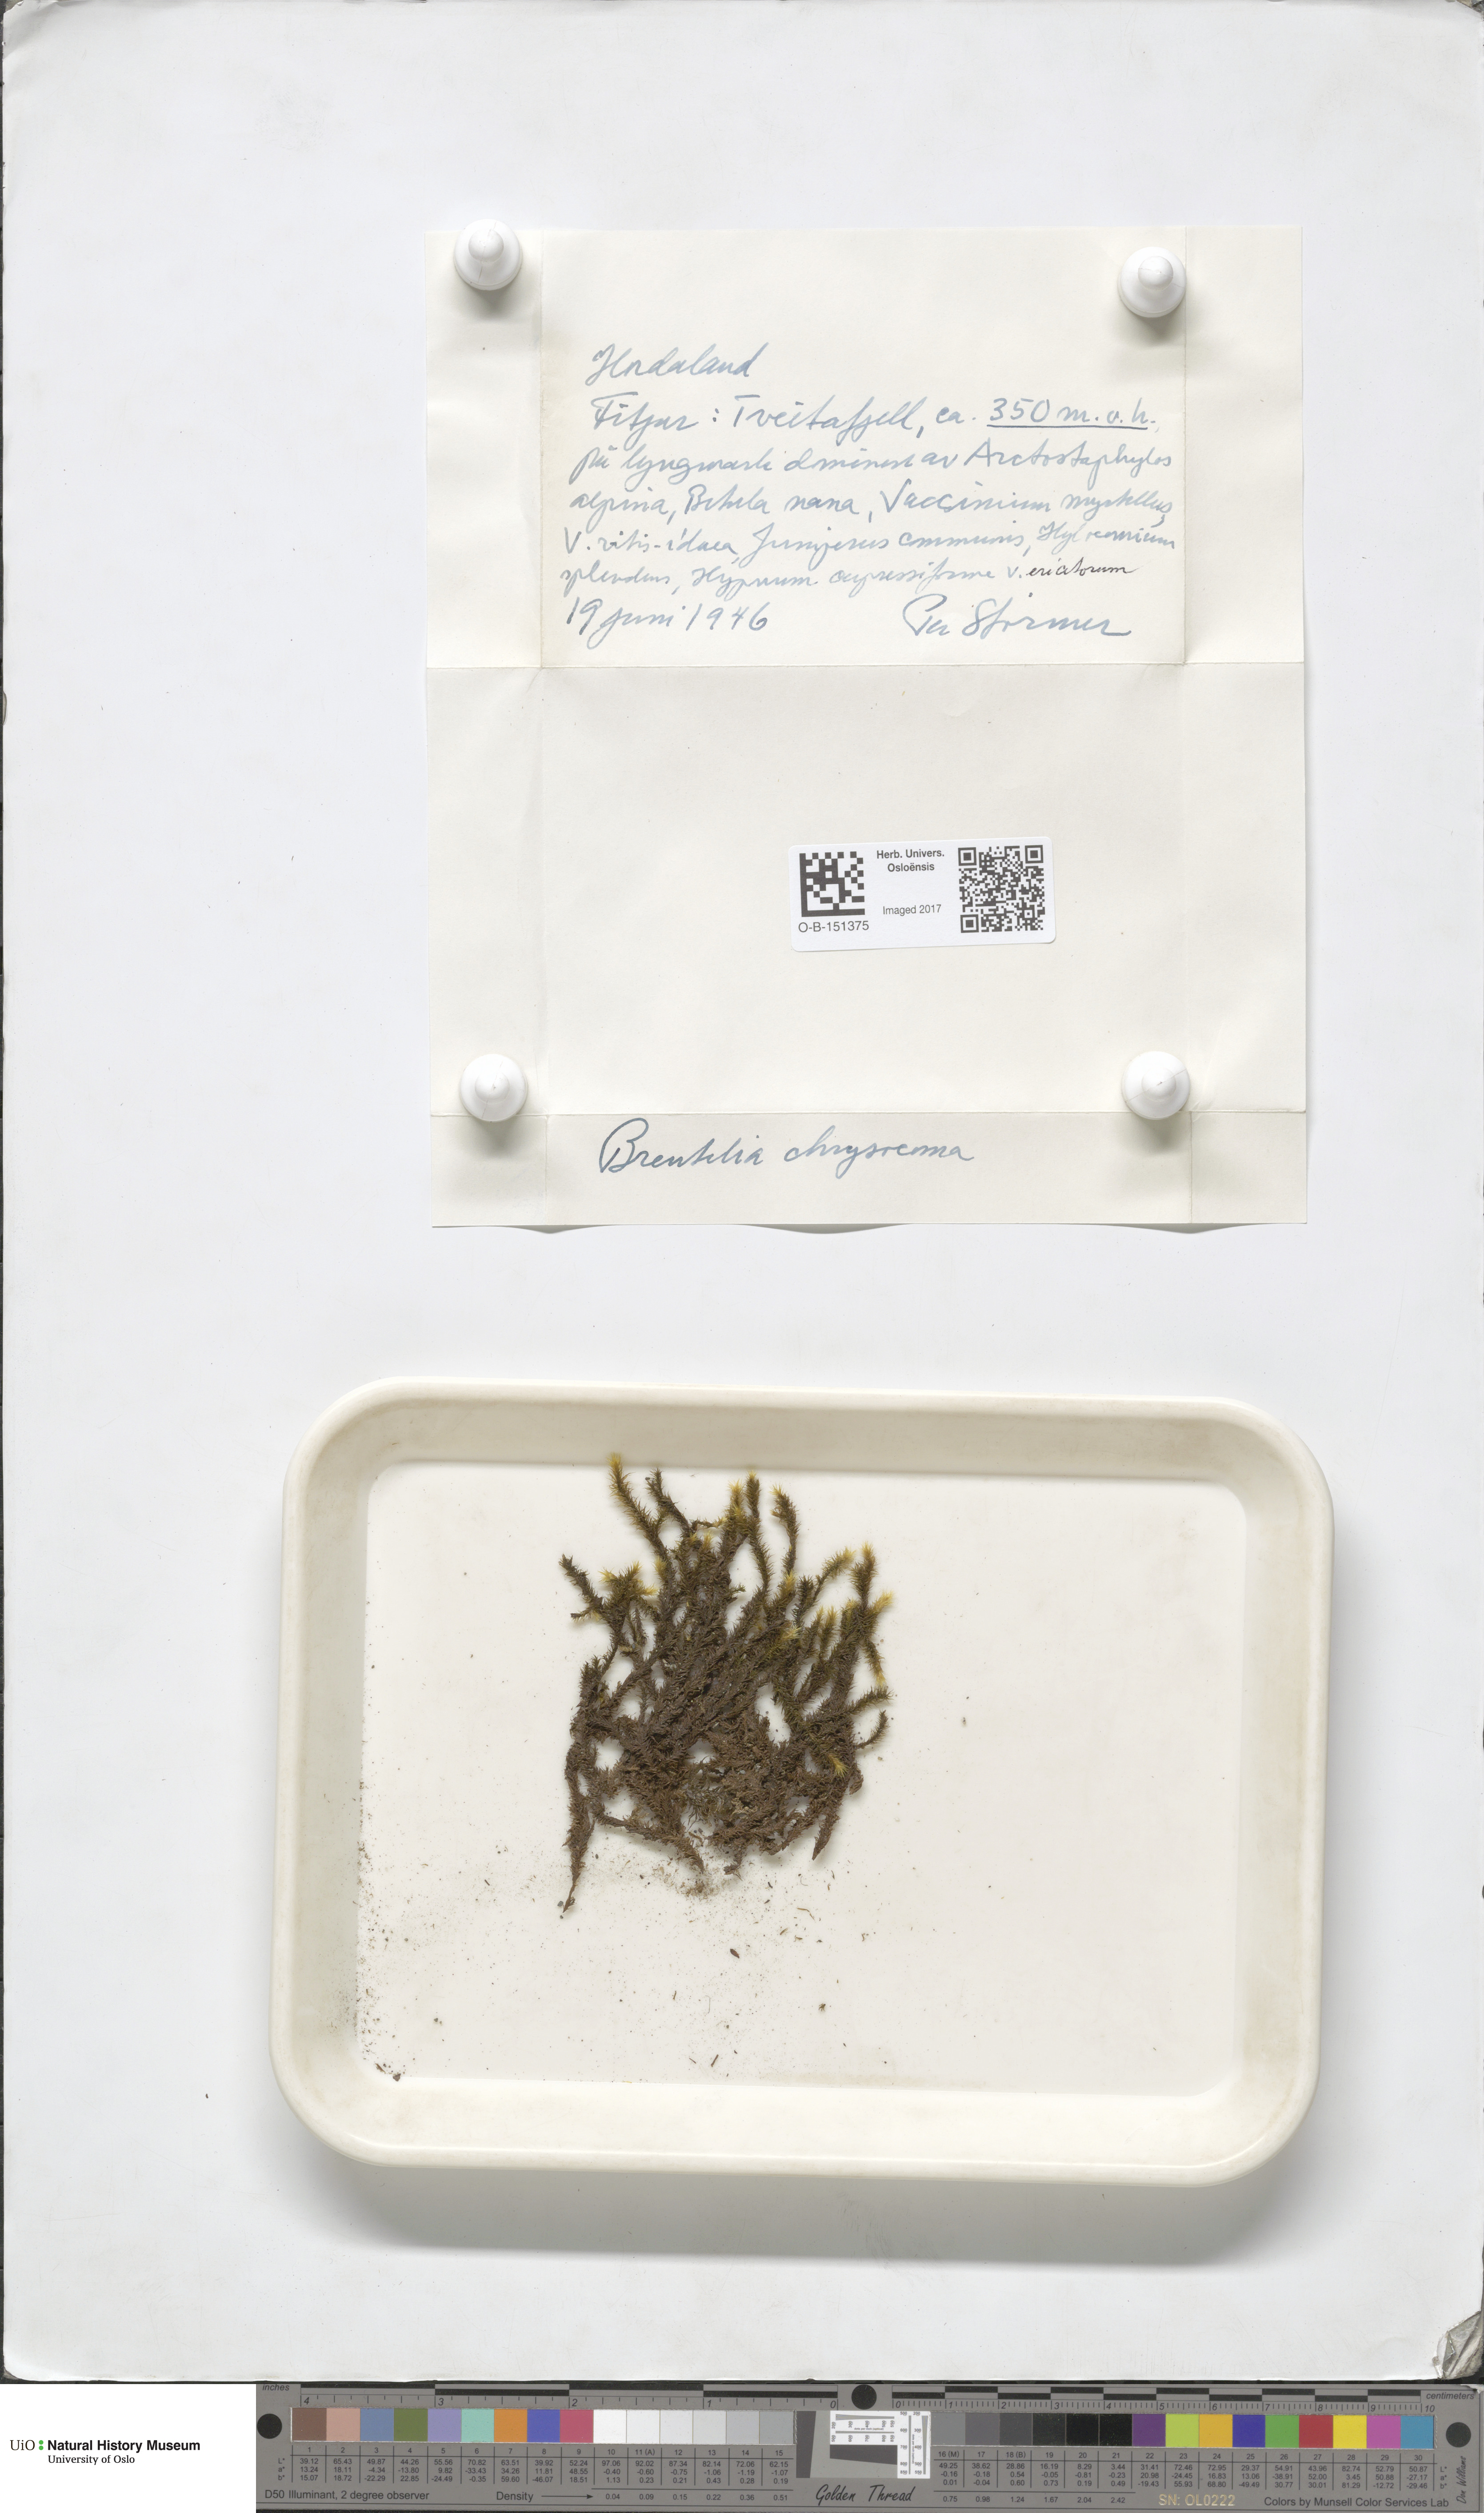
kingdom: Plantae
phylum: Bryophyta
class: Bryopsida
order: Bartramiales
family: Bartramiaceae
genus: Breutelia
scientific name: Breutelia chrysocoma
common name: Bottle-brush moss
